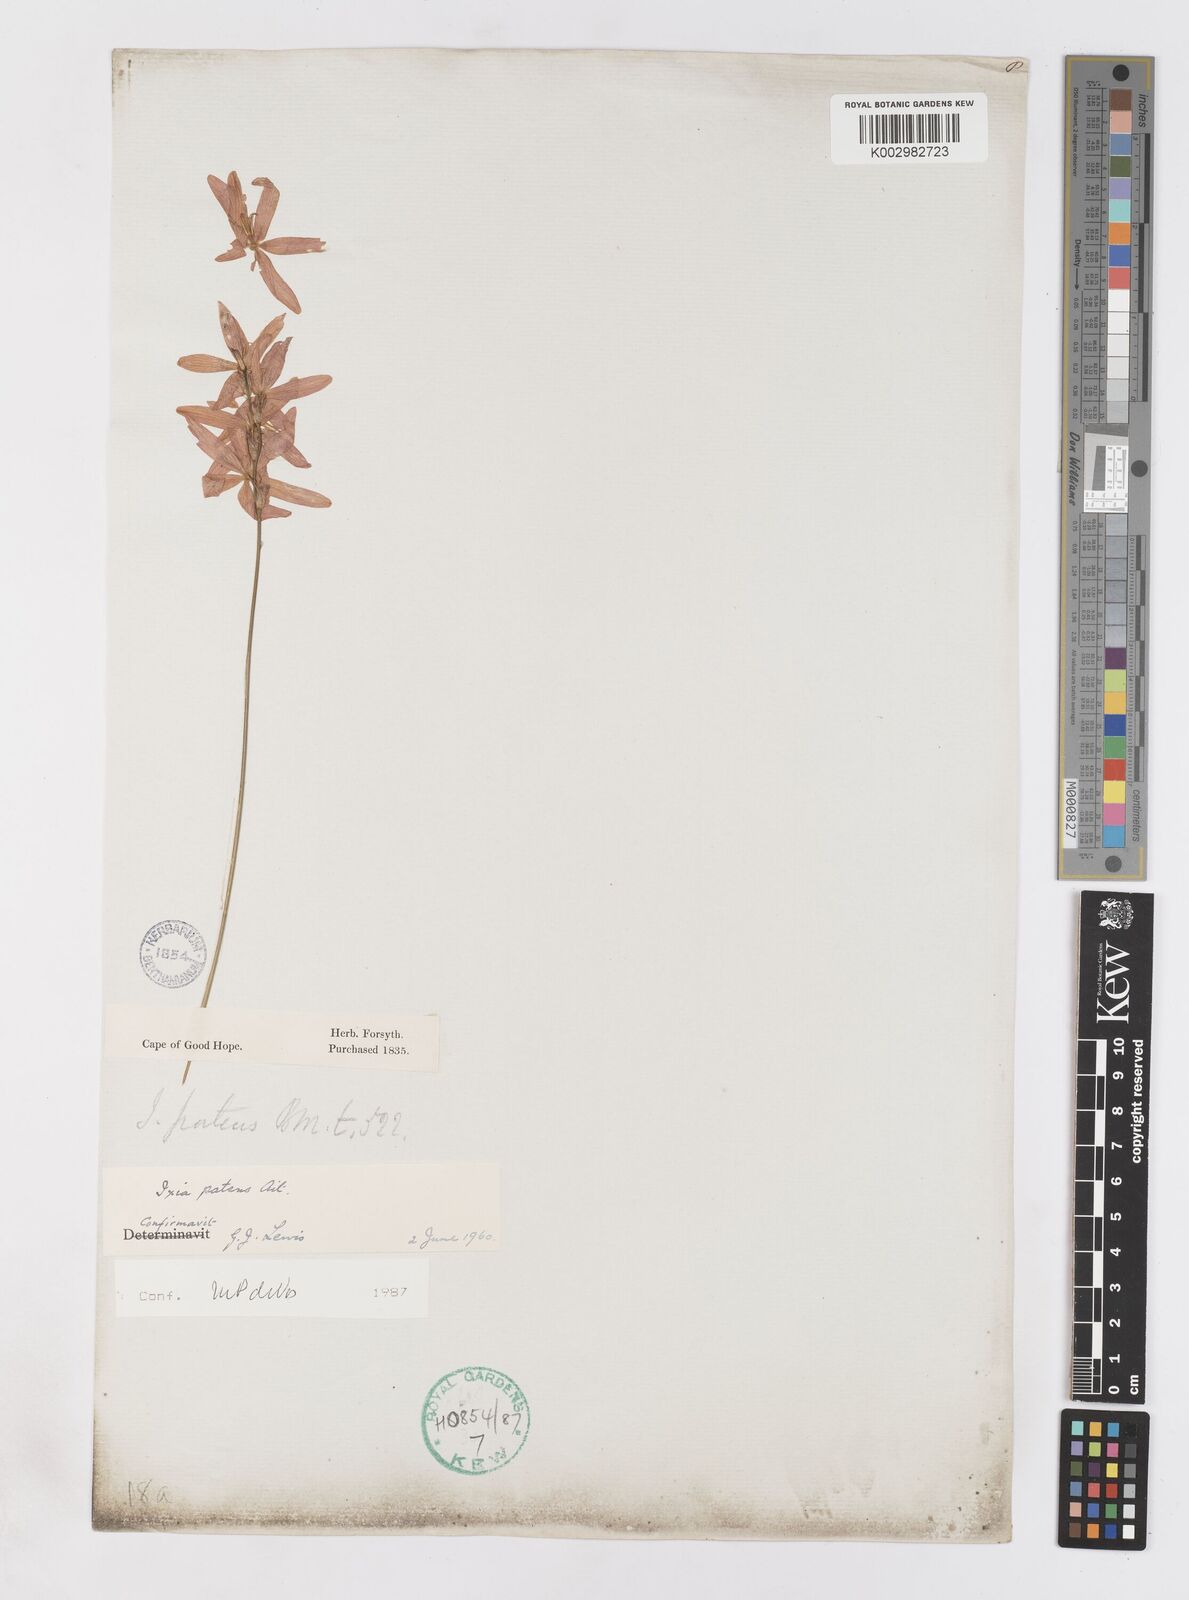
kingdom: Plantae
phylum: Tracheophyta
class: Liliopsida
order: Asparagales
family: Iridaceae
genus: Ixia
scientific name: Ixia patens
